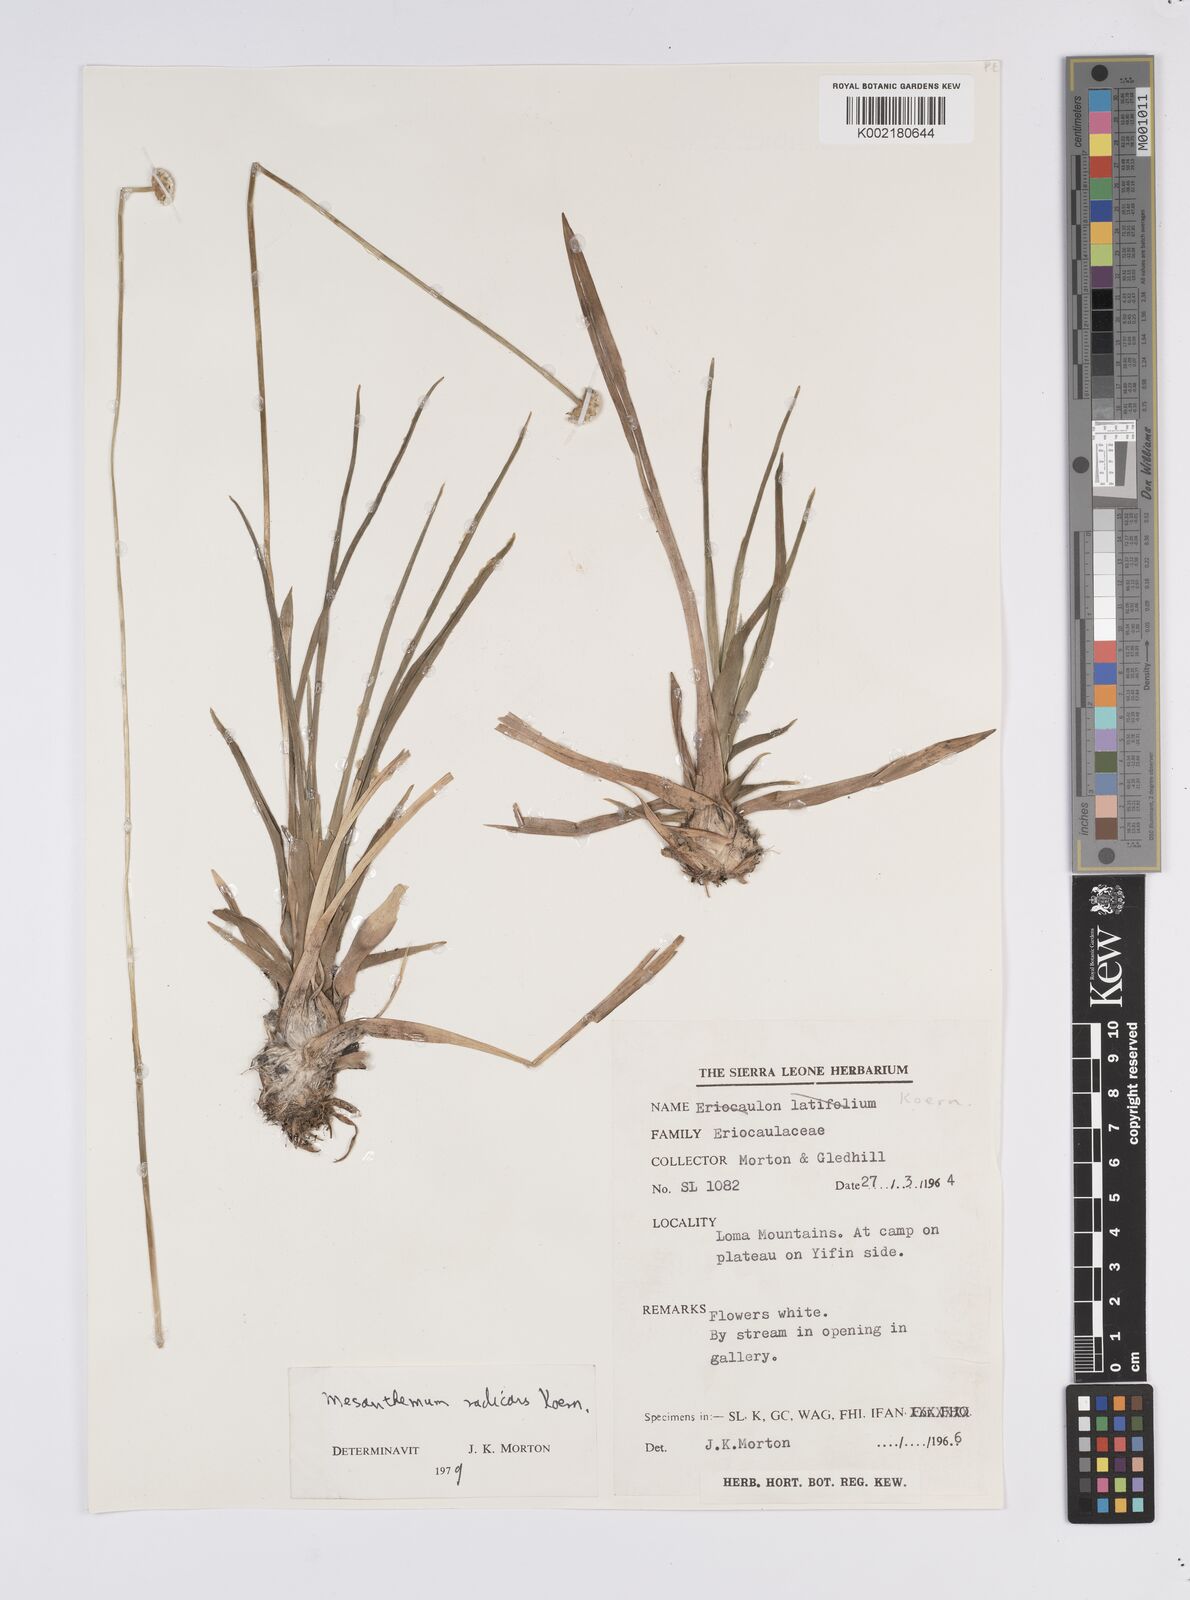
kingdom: Plantae
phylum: Tracheophyta
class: Liliopsida
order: Poales
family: Eriocaulaceae
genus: Mesanthemum
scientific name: Mesanthemum radicans
